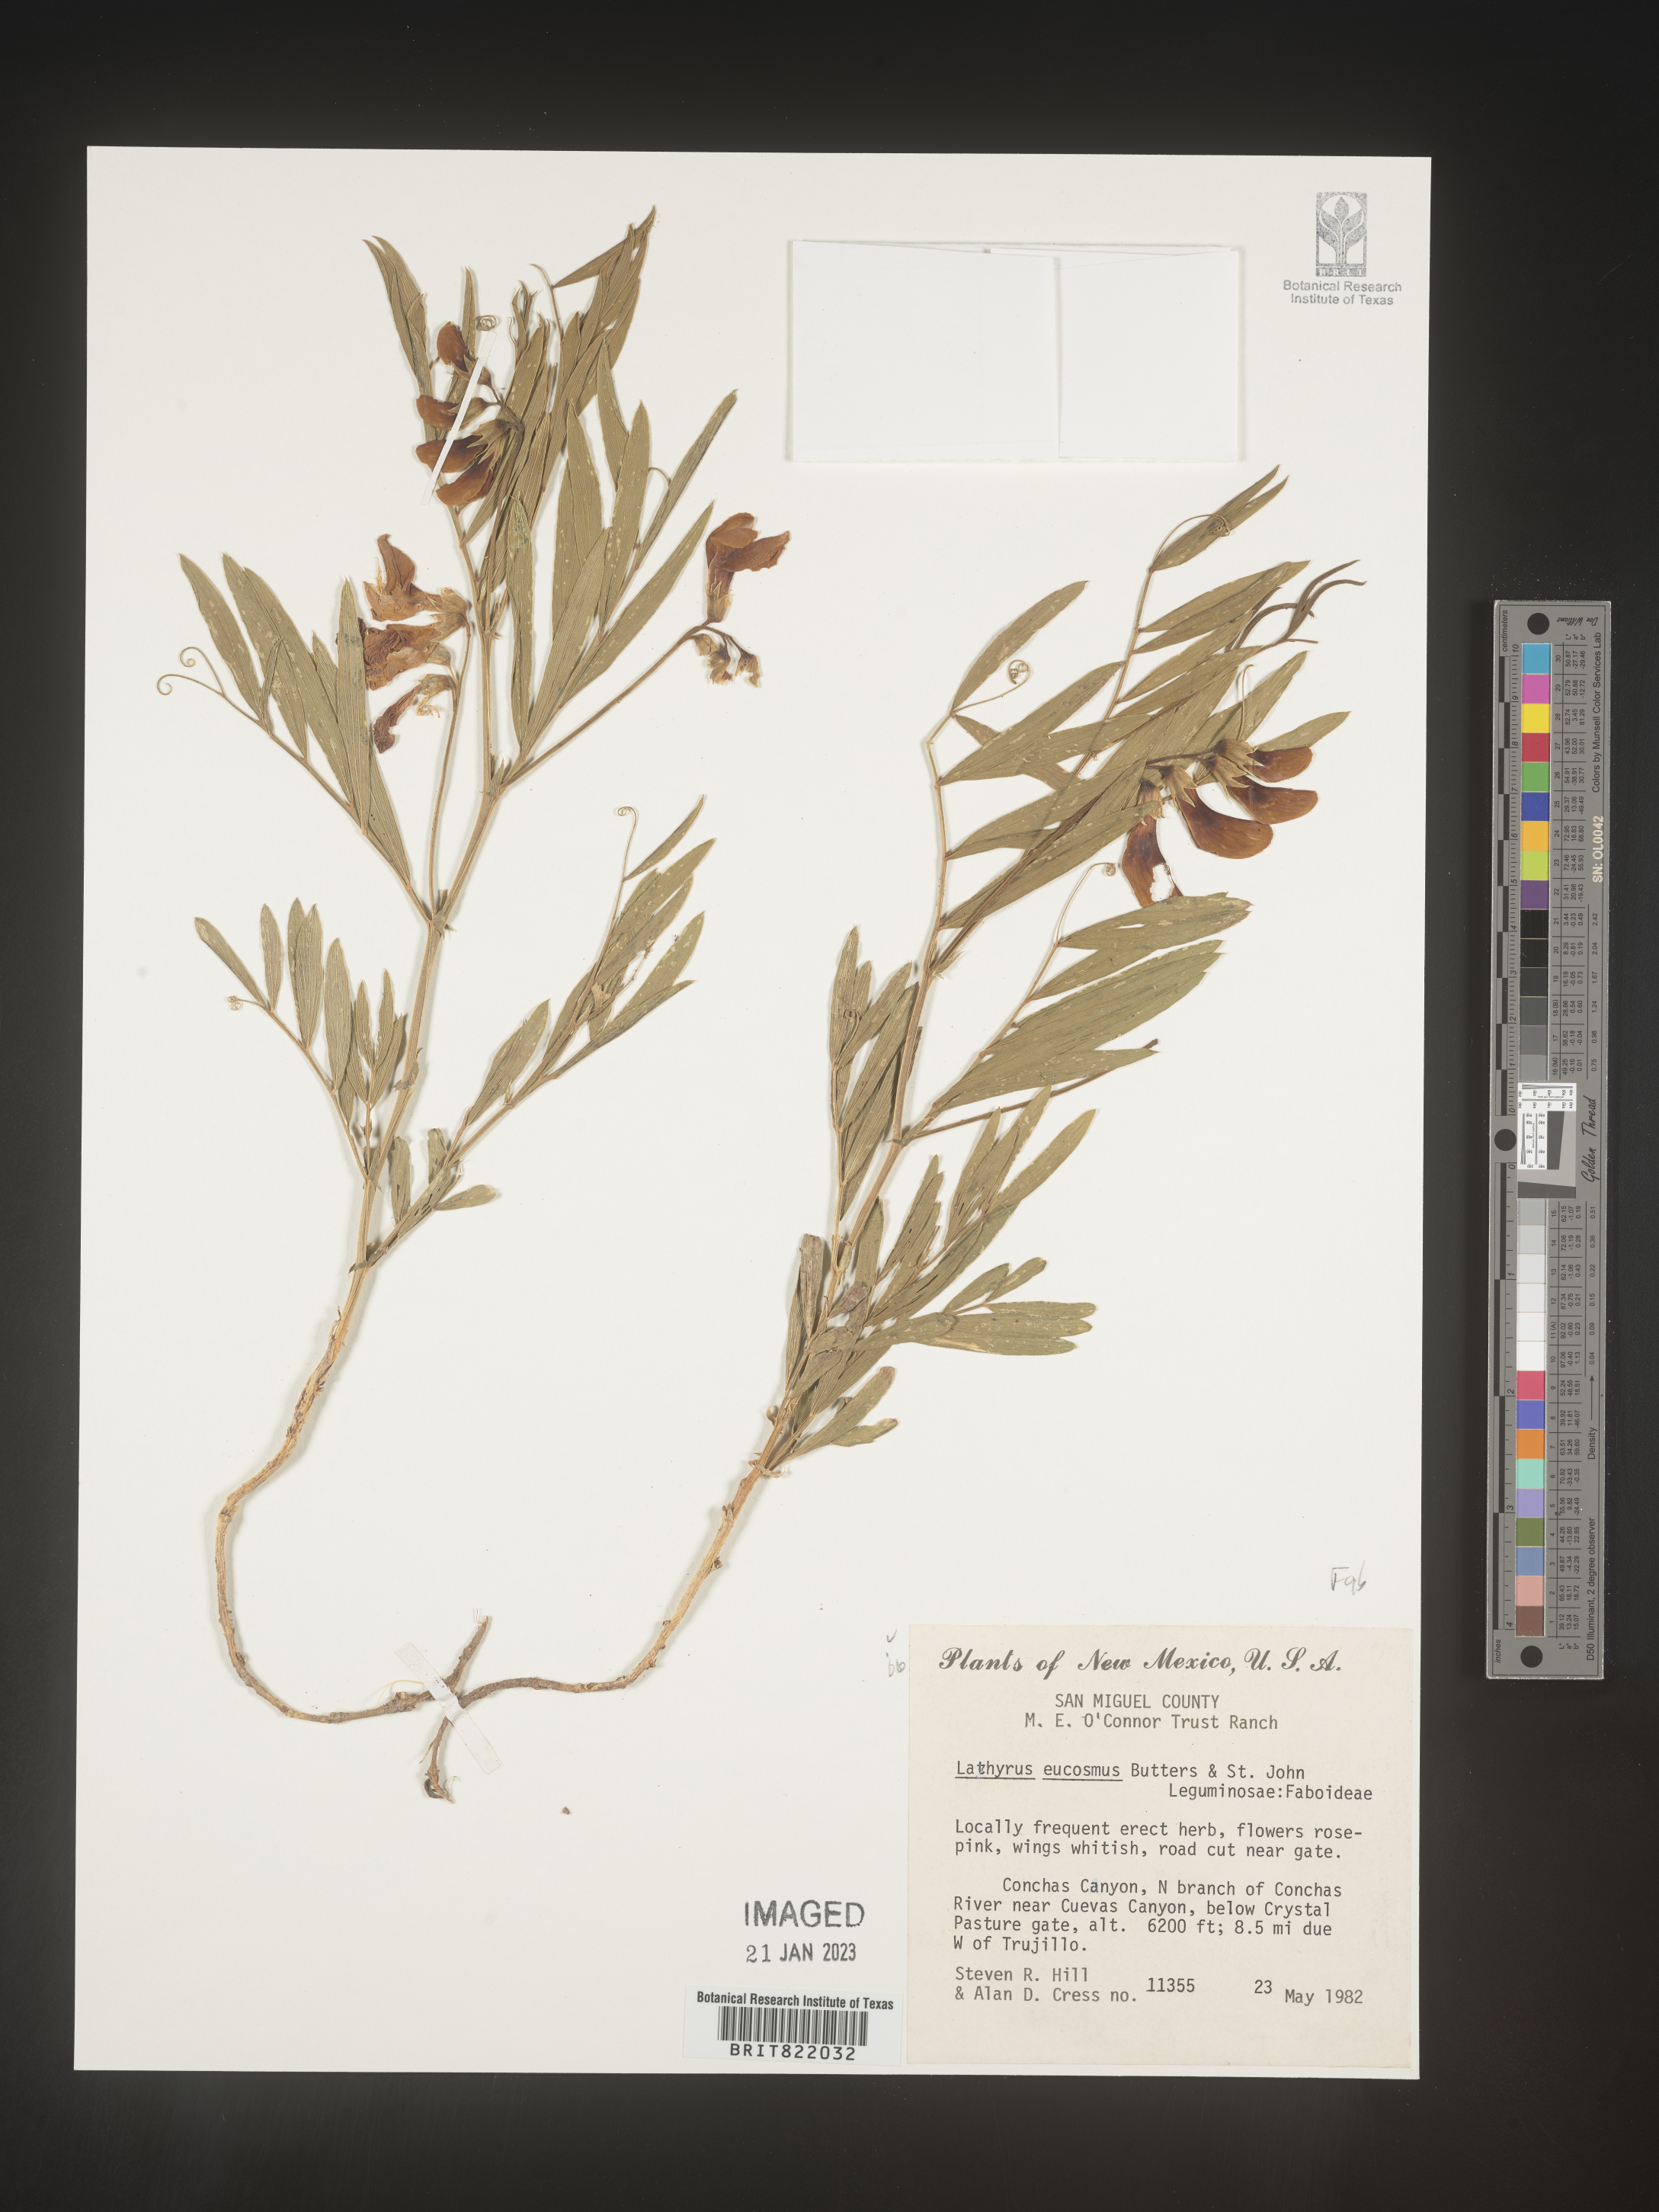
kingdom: Plantae
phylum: Tracheophyta
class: Magnoliopsida
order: Fabales
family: Fabaceae
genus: Lathyrus
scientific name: Lathyrus
